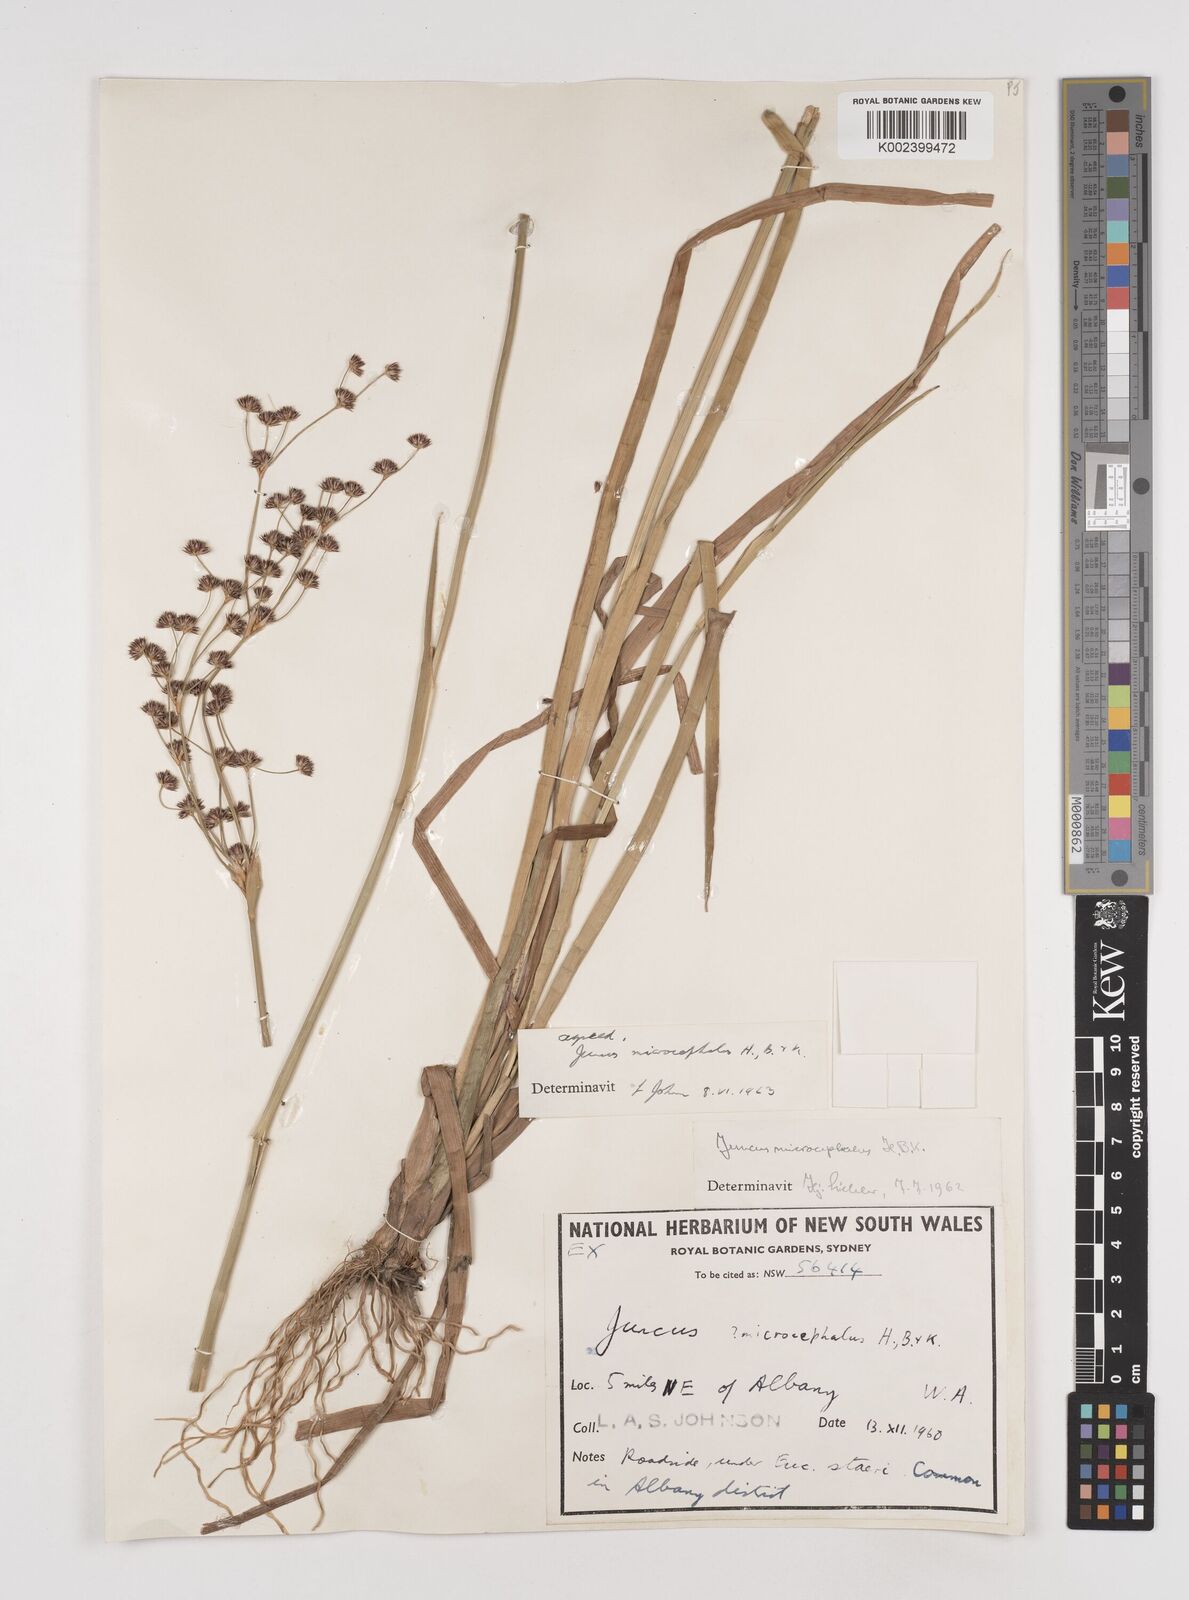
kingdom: Plantae
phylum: Tracheophyta
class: Liliopsida
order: Poales
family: Juncaceae
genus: Juncus
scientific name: Juncus microcephalus
